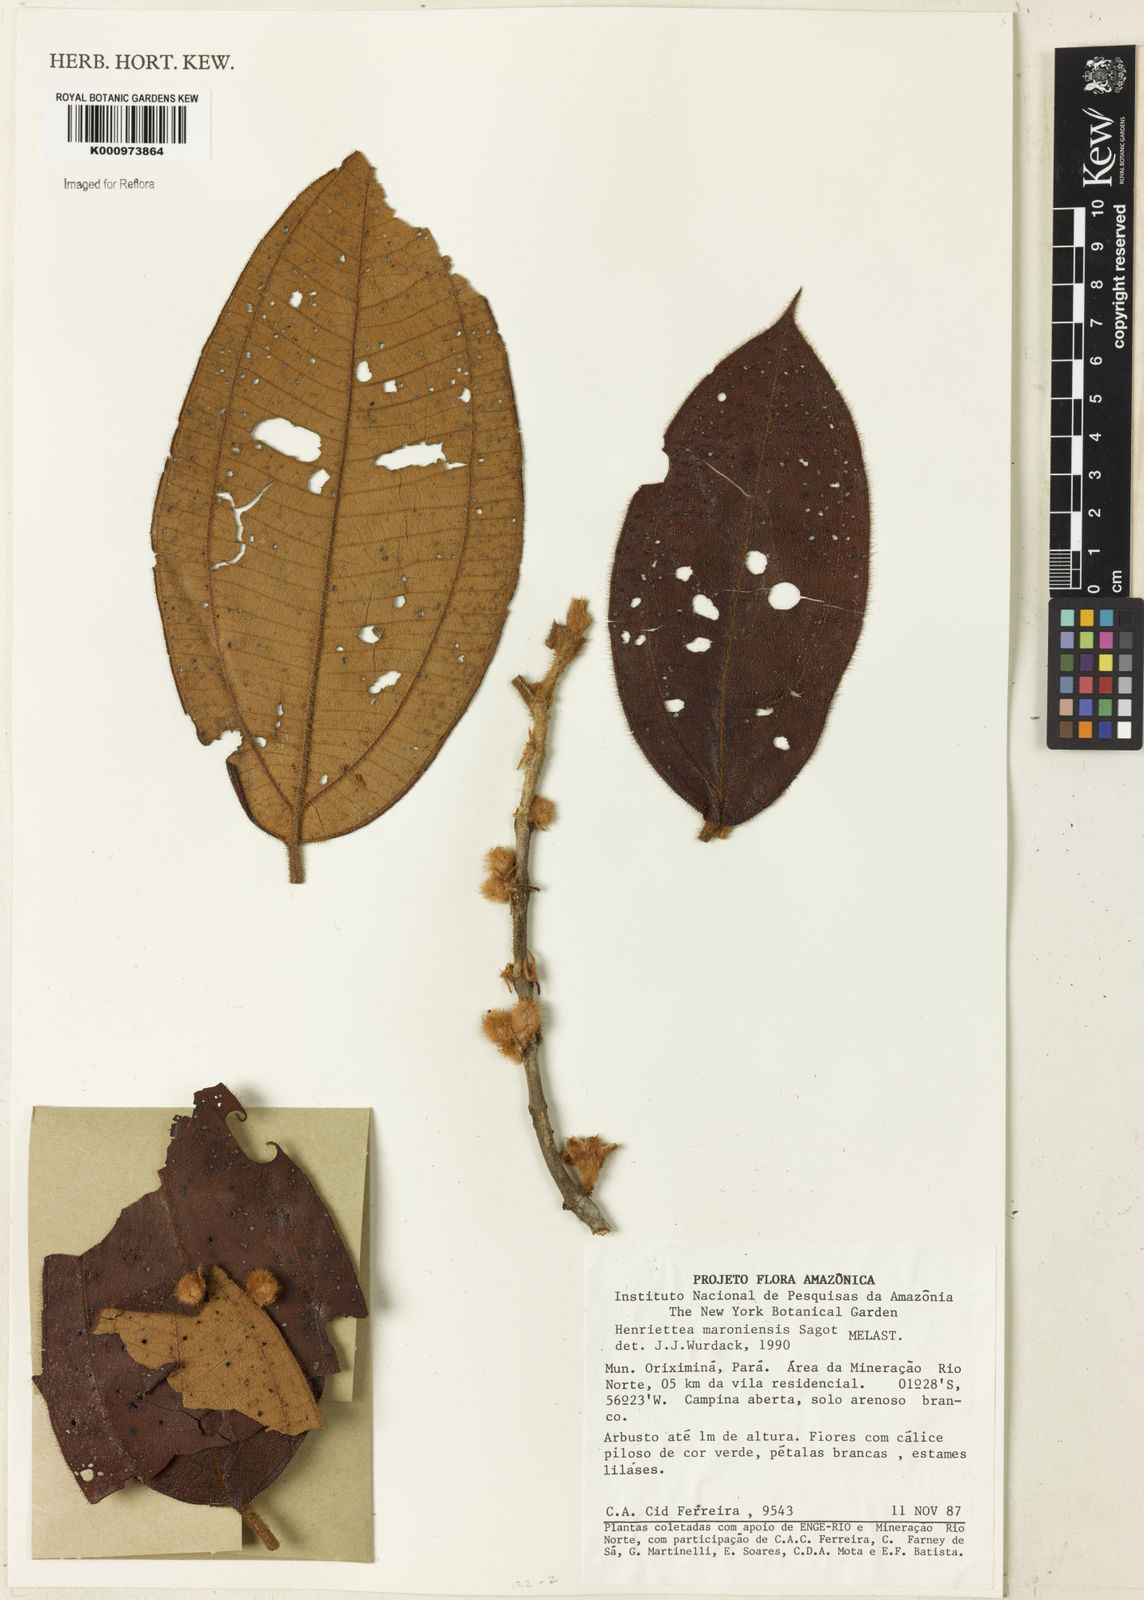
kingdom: Plantae
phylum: Tracheophyta
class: Magnoliopsida
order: Myrtales
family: Melastomataceae
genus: Henriettea
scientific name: Henriettea maroniensis
